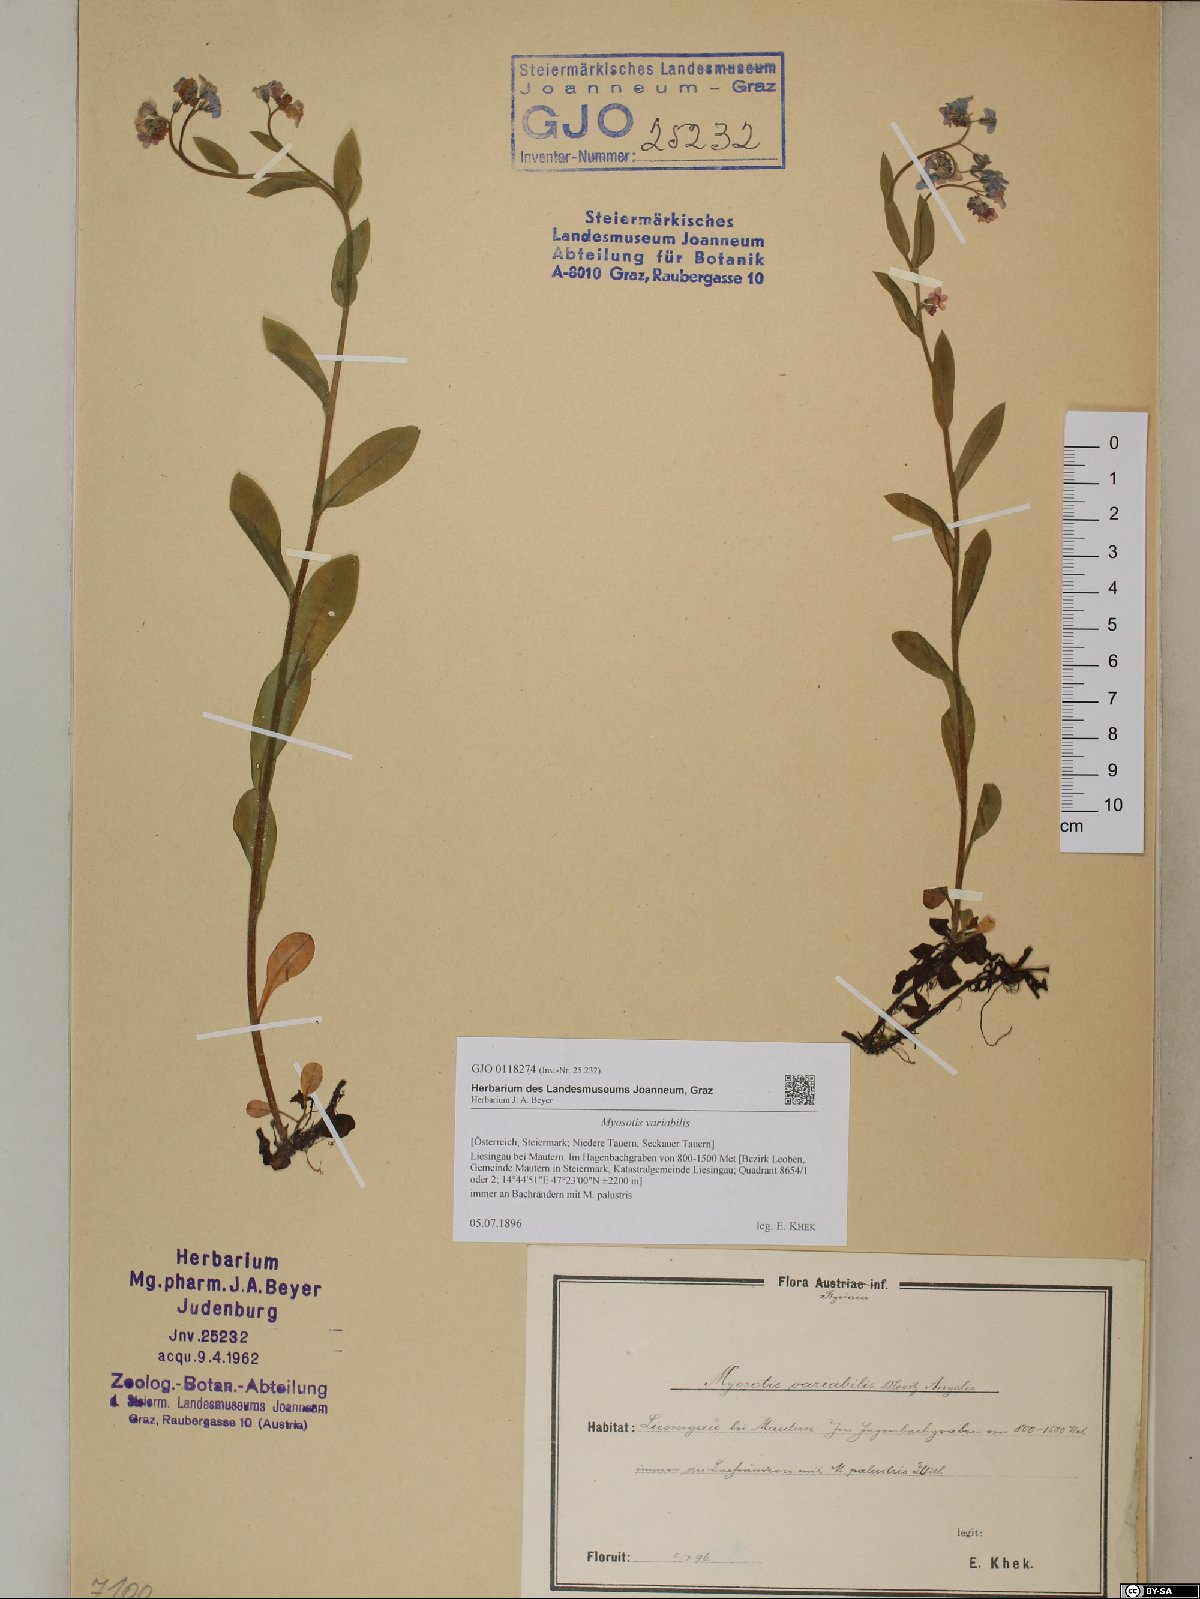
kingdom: Plantae
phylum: Tracheophyta
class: Magnoliopsida
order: Boraginales
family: Boraginaceae
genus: Myosotis
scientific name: Myosotis decumbens
